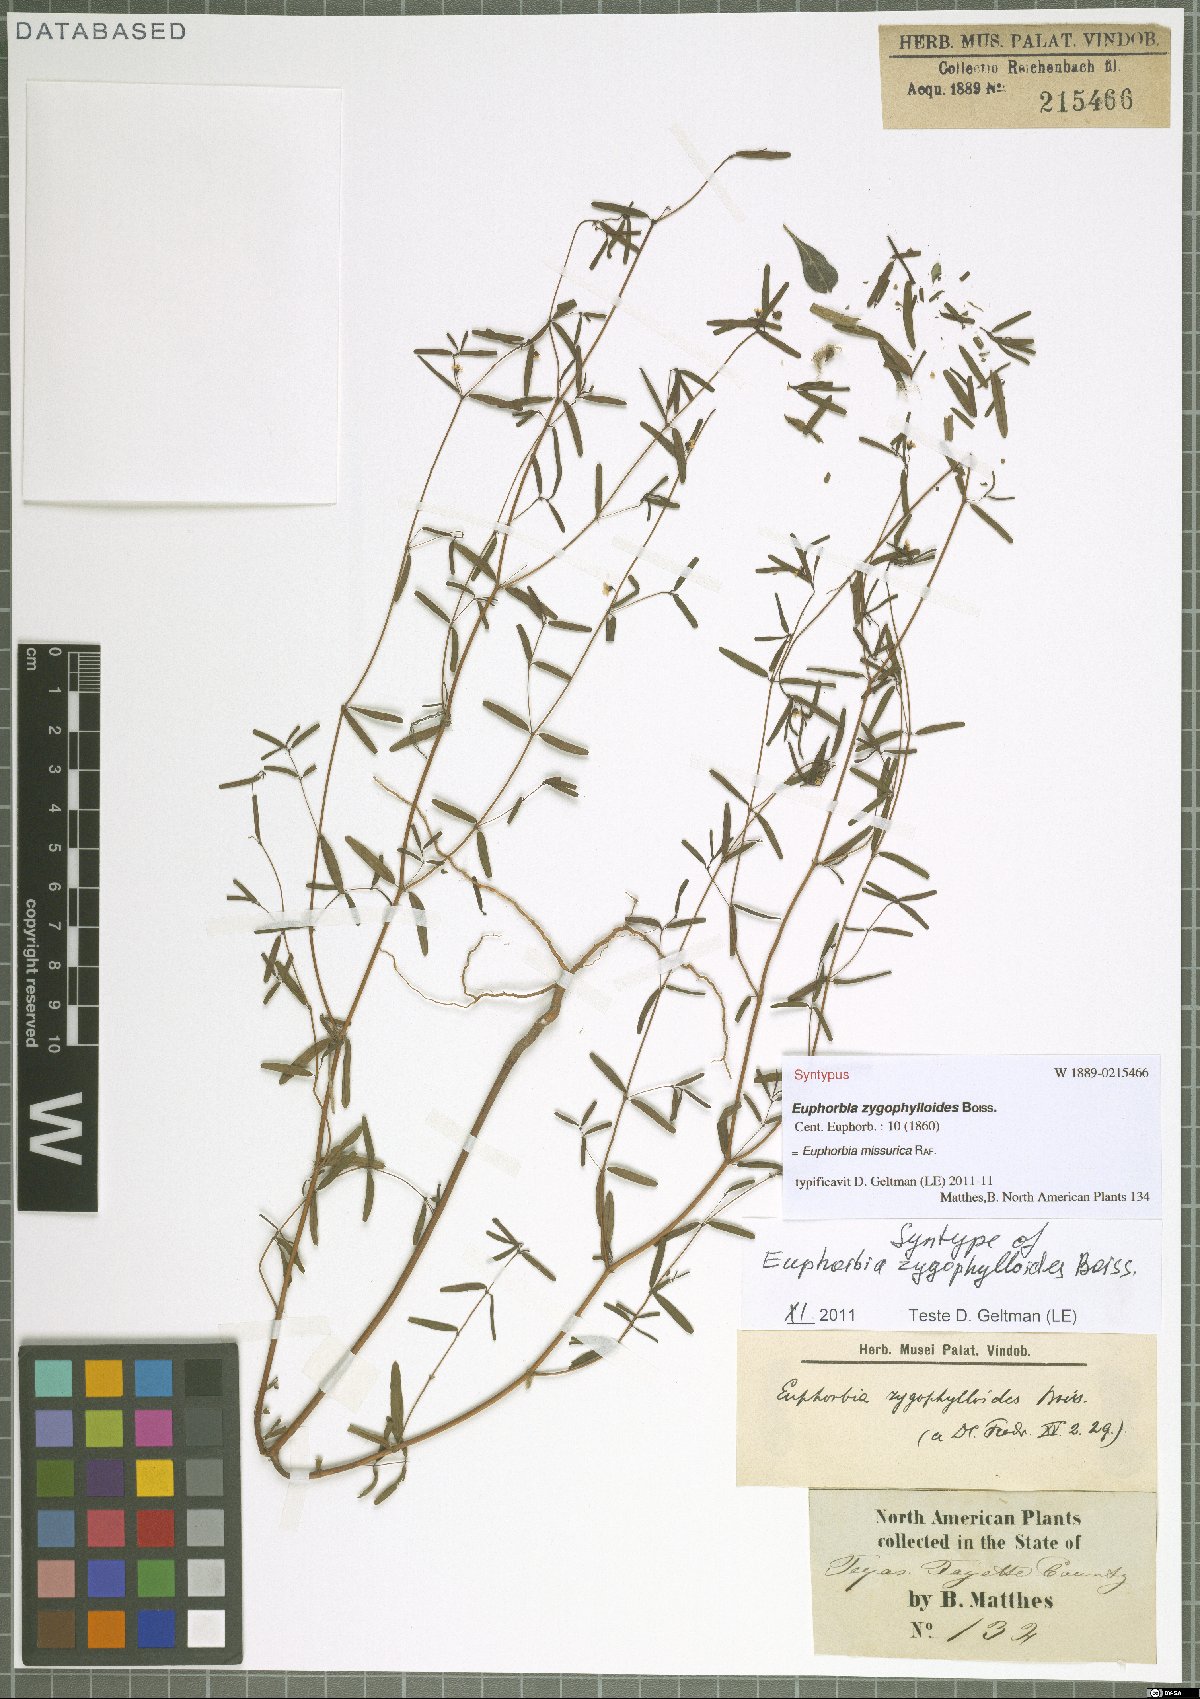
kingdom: Plantae
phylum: Tracheophyta
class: Magnoliopsida
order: Malpighiales
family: Euphorbiaceae
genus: Euphorbia
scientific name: Euphorbia missurica
